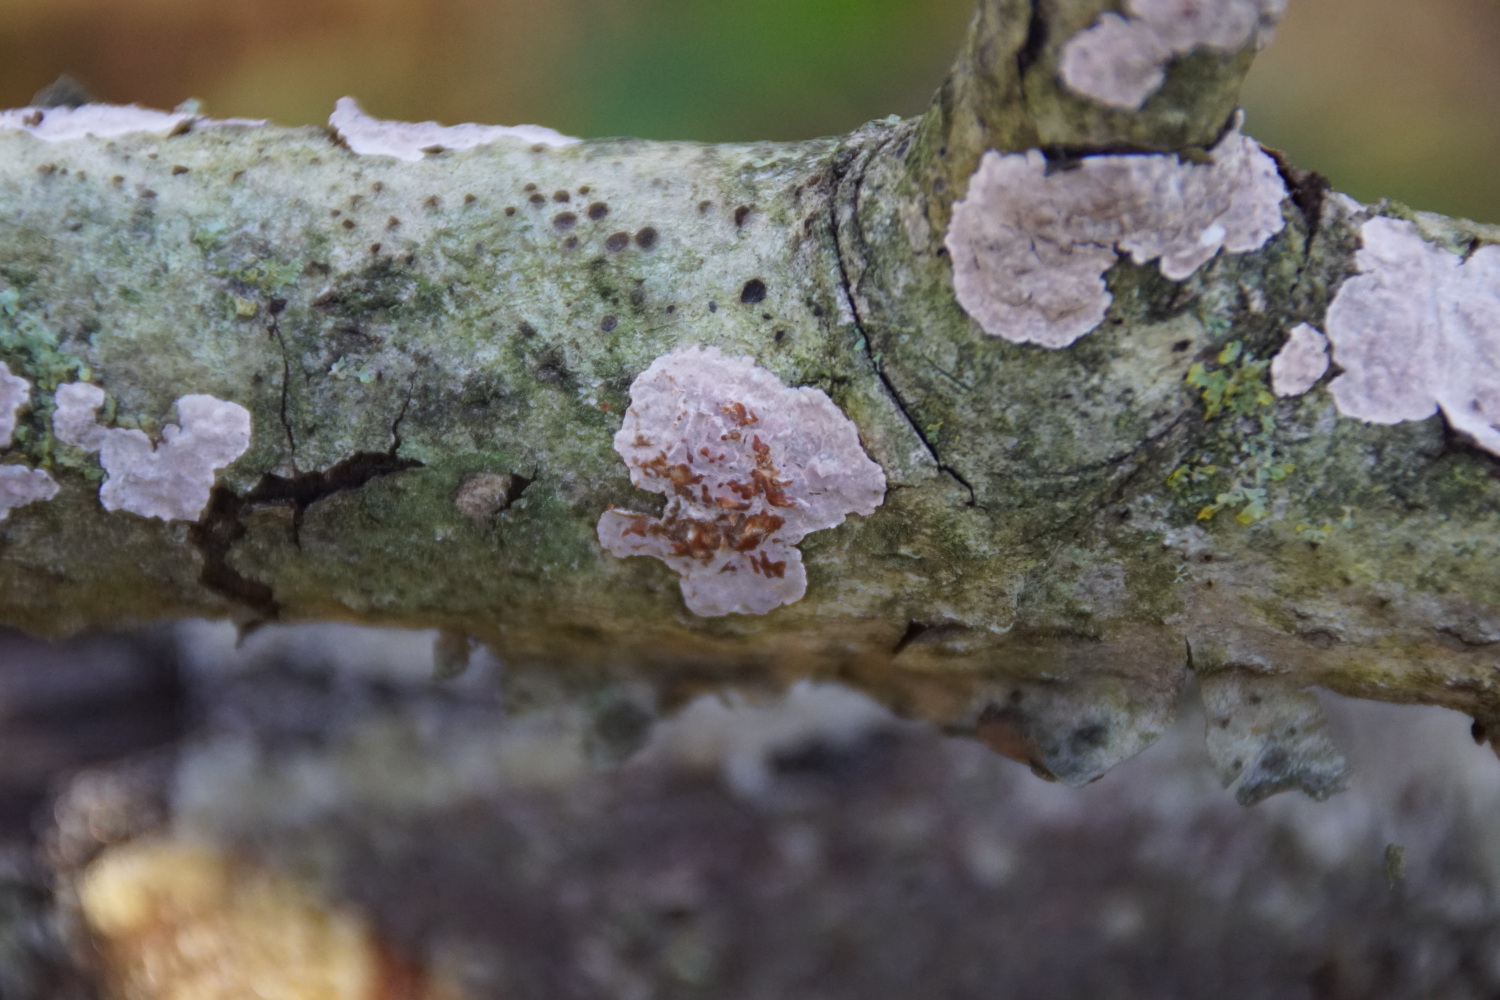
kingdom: Fungi
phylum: Basidiomycota
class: Agaricomycetes
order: Russulales
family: Peniophoraceae
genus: Peniophora
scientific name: Peniophora polygonia
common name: polygon-voksskind
